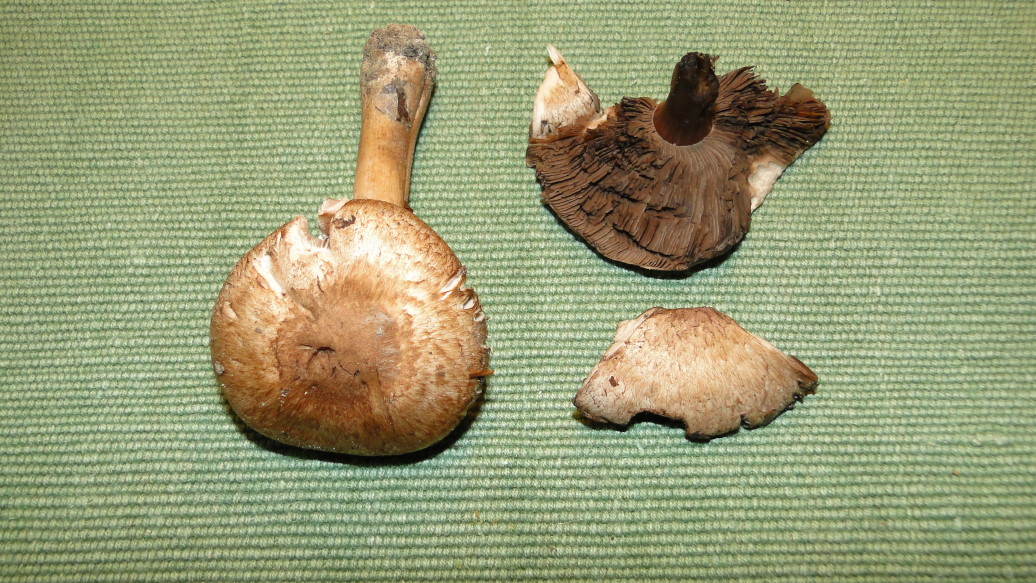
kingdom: Fungi
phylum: Basidiomycota
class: Agaricomycetes
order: Agaricales
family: Agaricaceae
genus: Agaricus
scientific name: Agaricus langei
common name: stor blod-champignon
